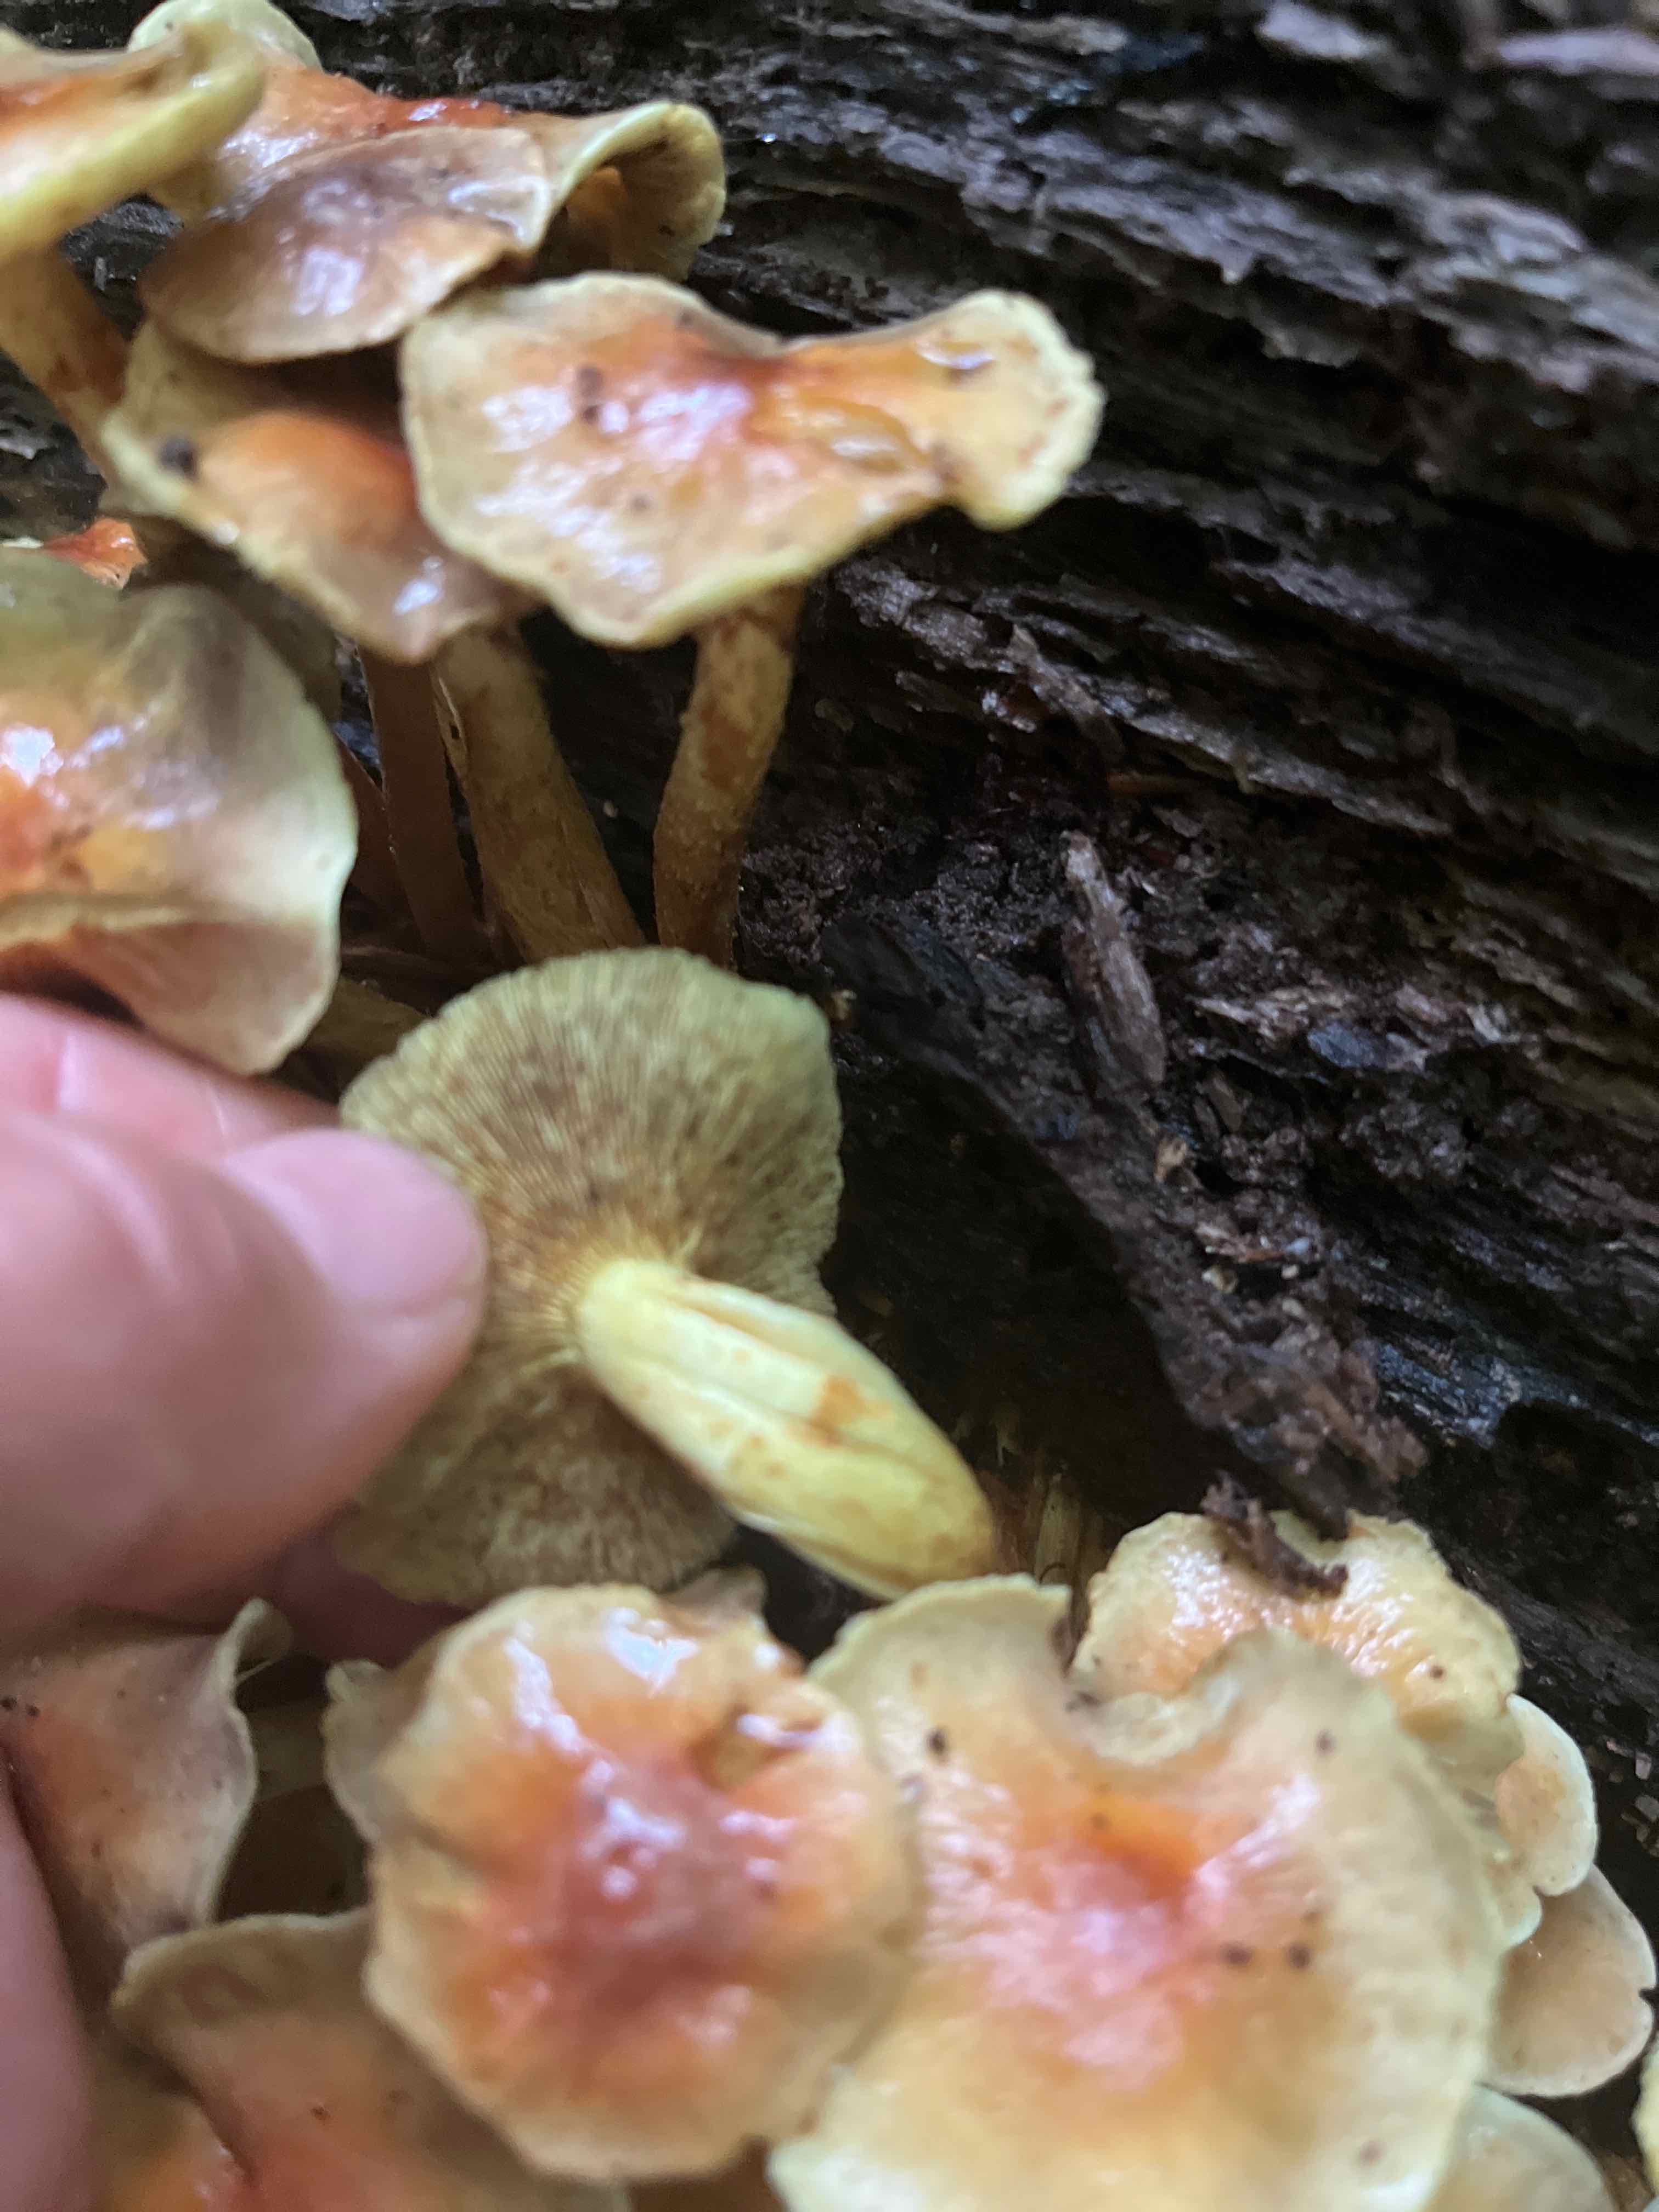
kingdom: Fungi
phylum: Basidiomycota
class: Agaricomycetes
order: Agaricales
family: Strophariaceae
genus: Hypholoma
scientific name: Hypholoma fasciculare
